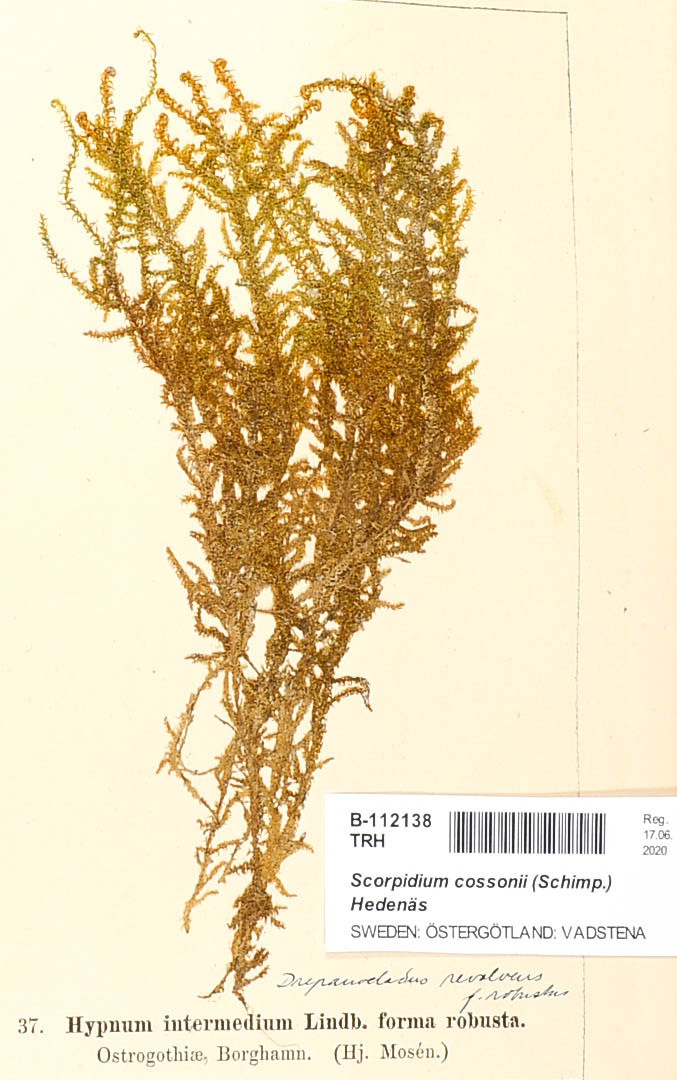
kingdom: Plantae
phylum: Bryophyta
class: Bryopsida
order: Hypnales
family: Scorpidiaceae
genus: Scorpidium
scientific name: Scorpidium cossonii
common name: Cosson's hook moss
